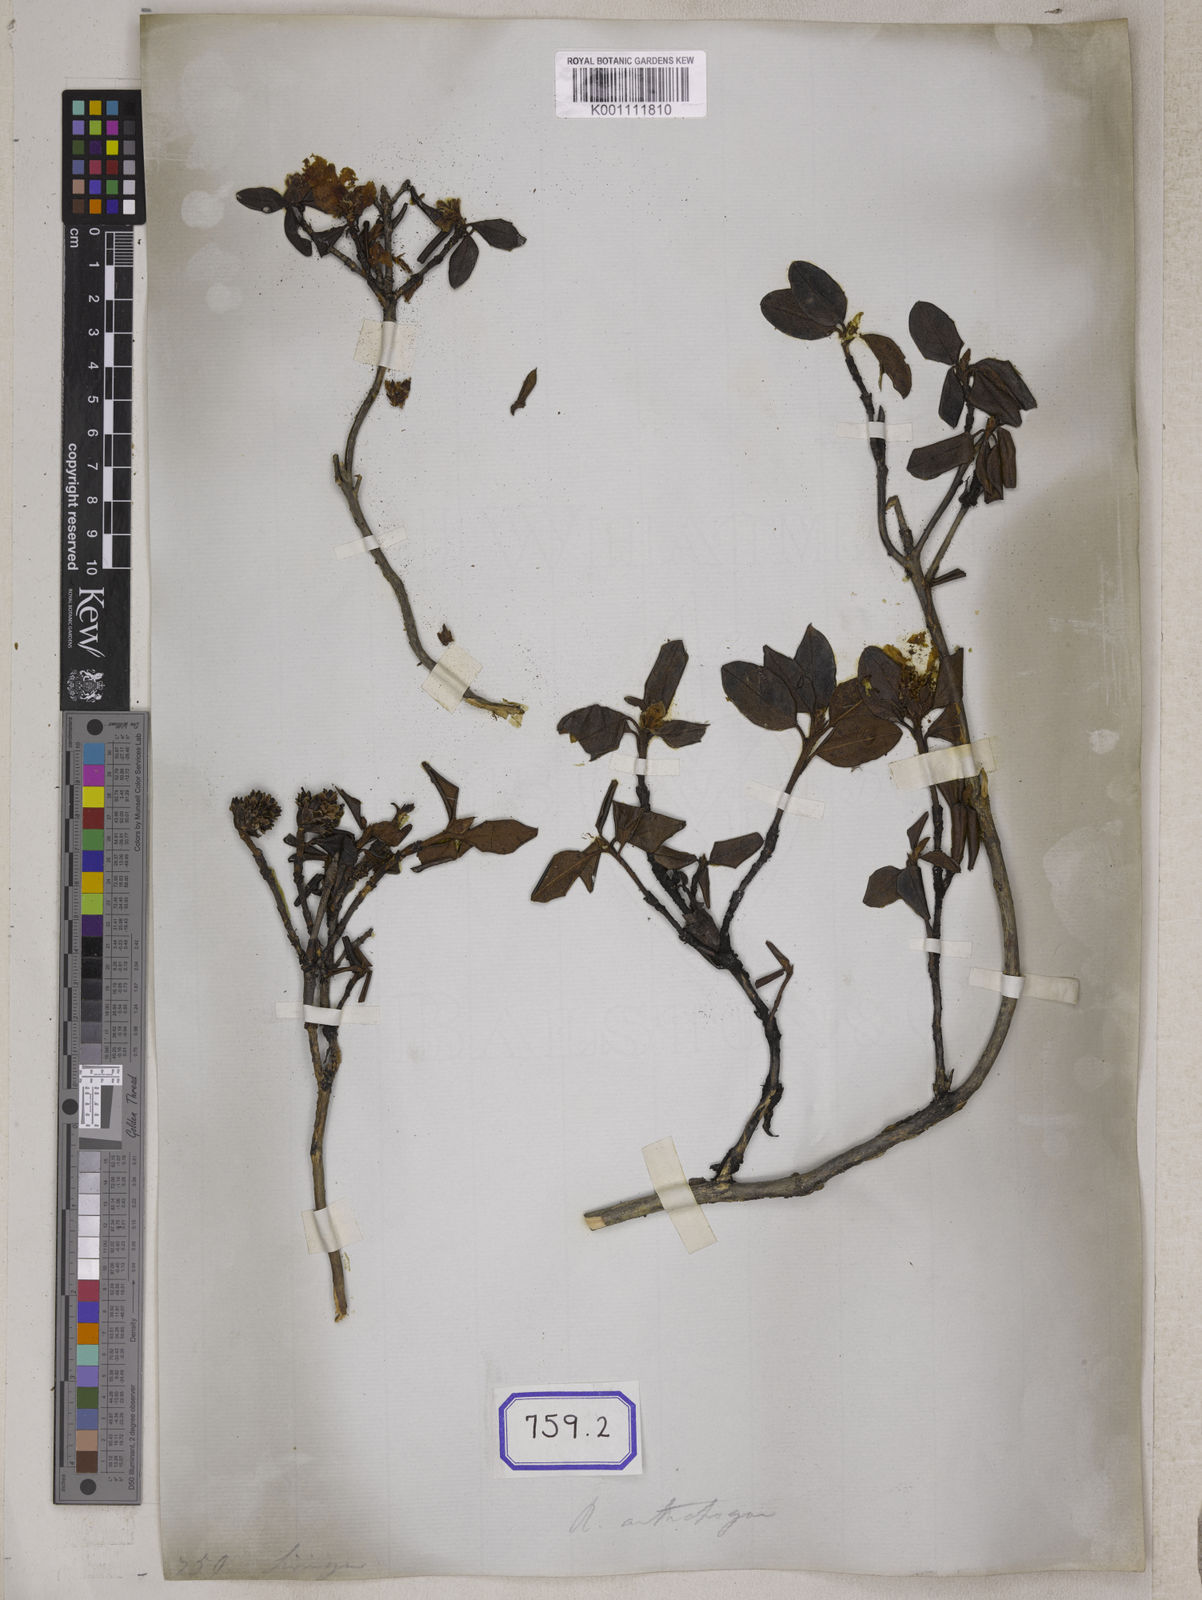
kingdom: Plantae
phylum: Tracheophyta
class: Magnoliopsida
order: Ericales
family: Ericaceae
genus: Rhododendron
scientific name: Rhododendron anthopogon
